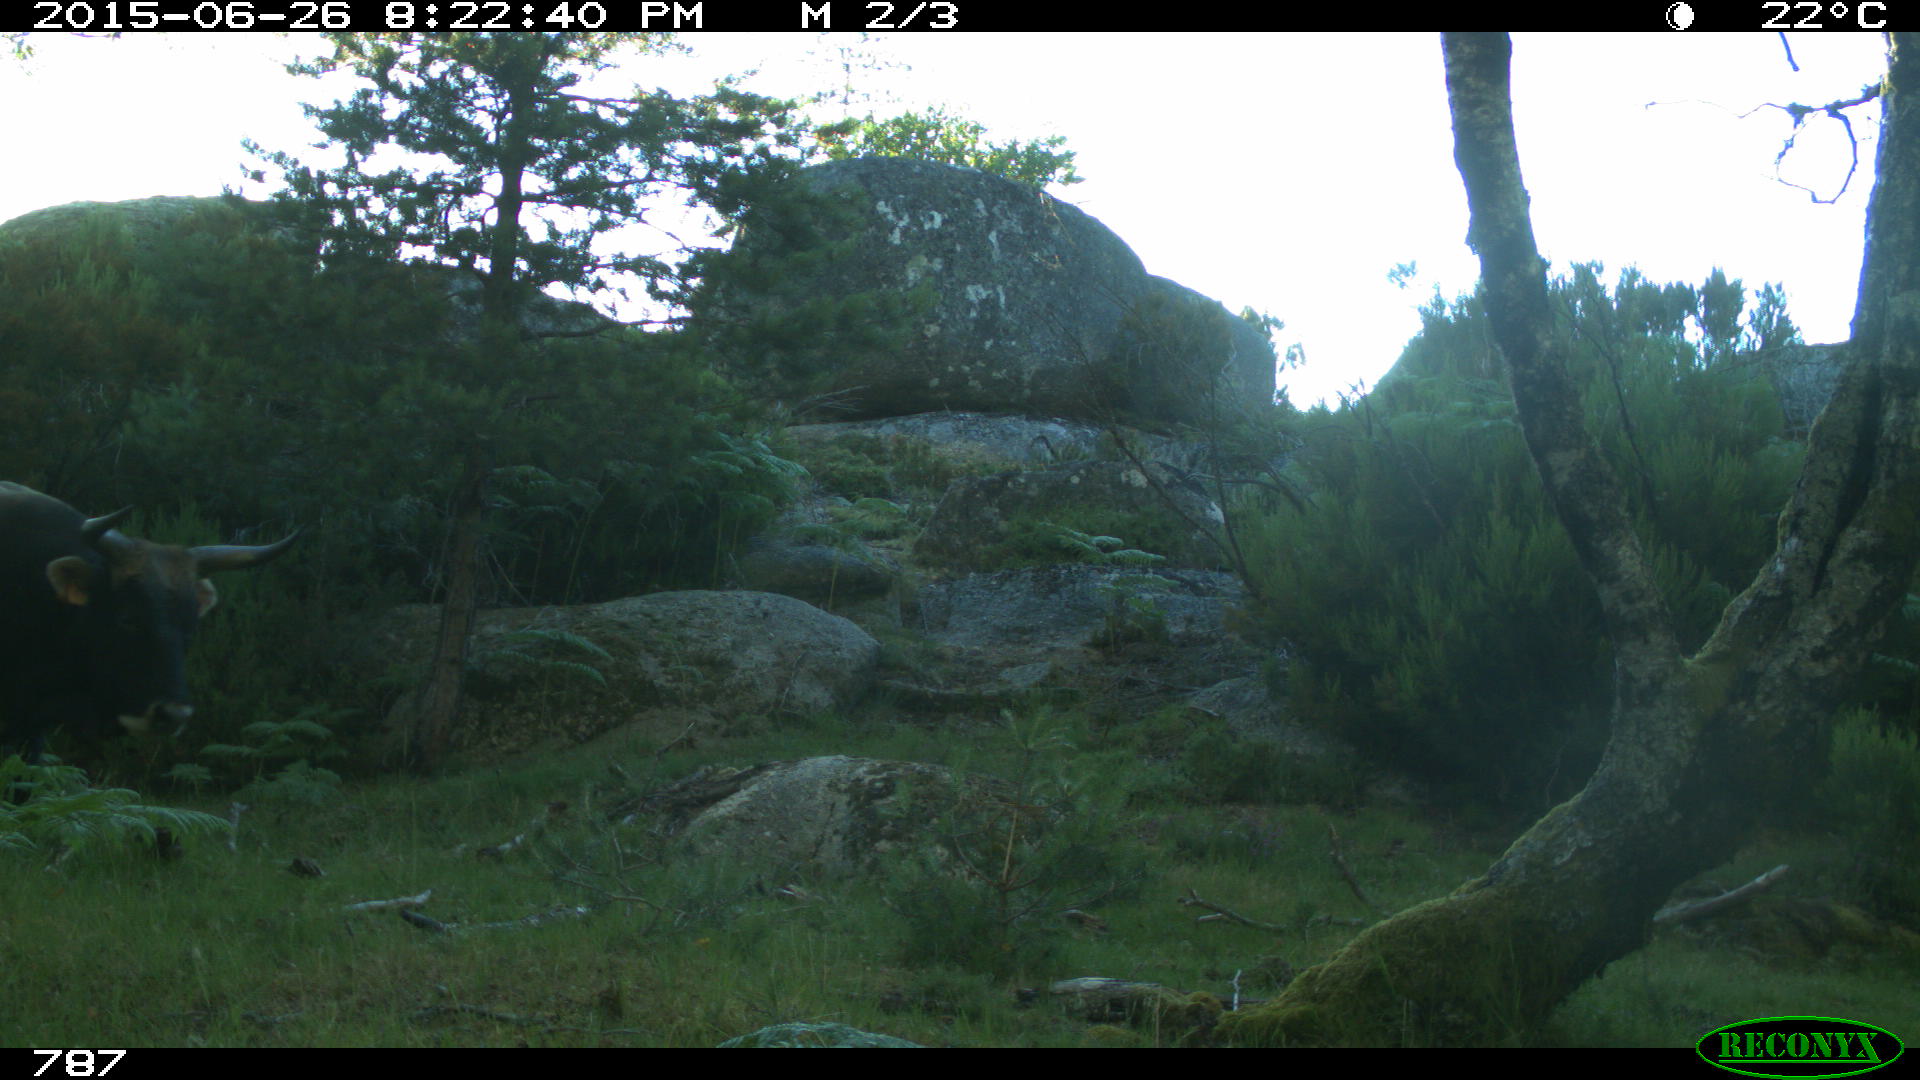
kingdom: Animalia
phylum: Chordata
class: Mammalia
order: Artiodactyla
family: Bovidae
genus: Bos
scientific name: Bos taurus
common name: Domesticated cattle
